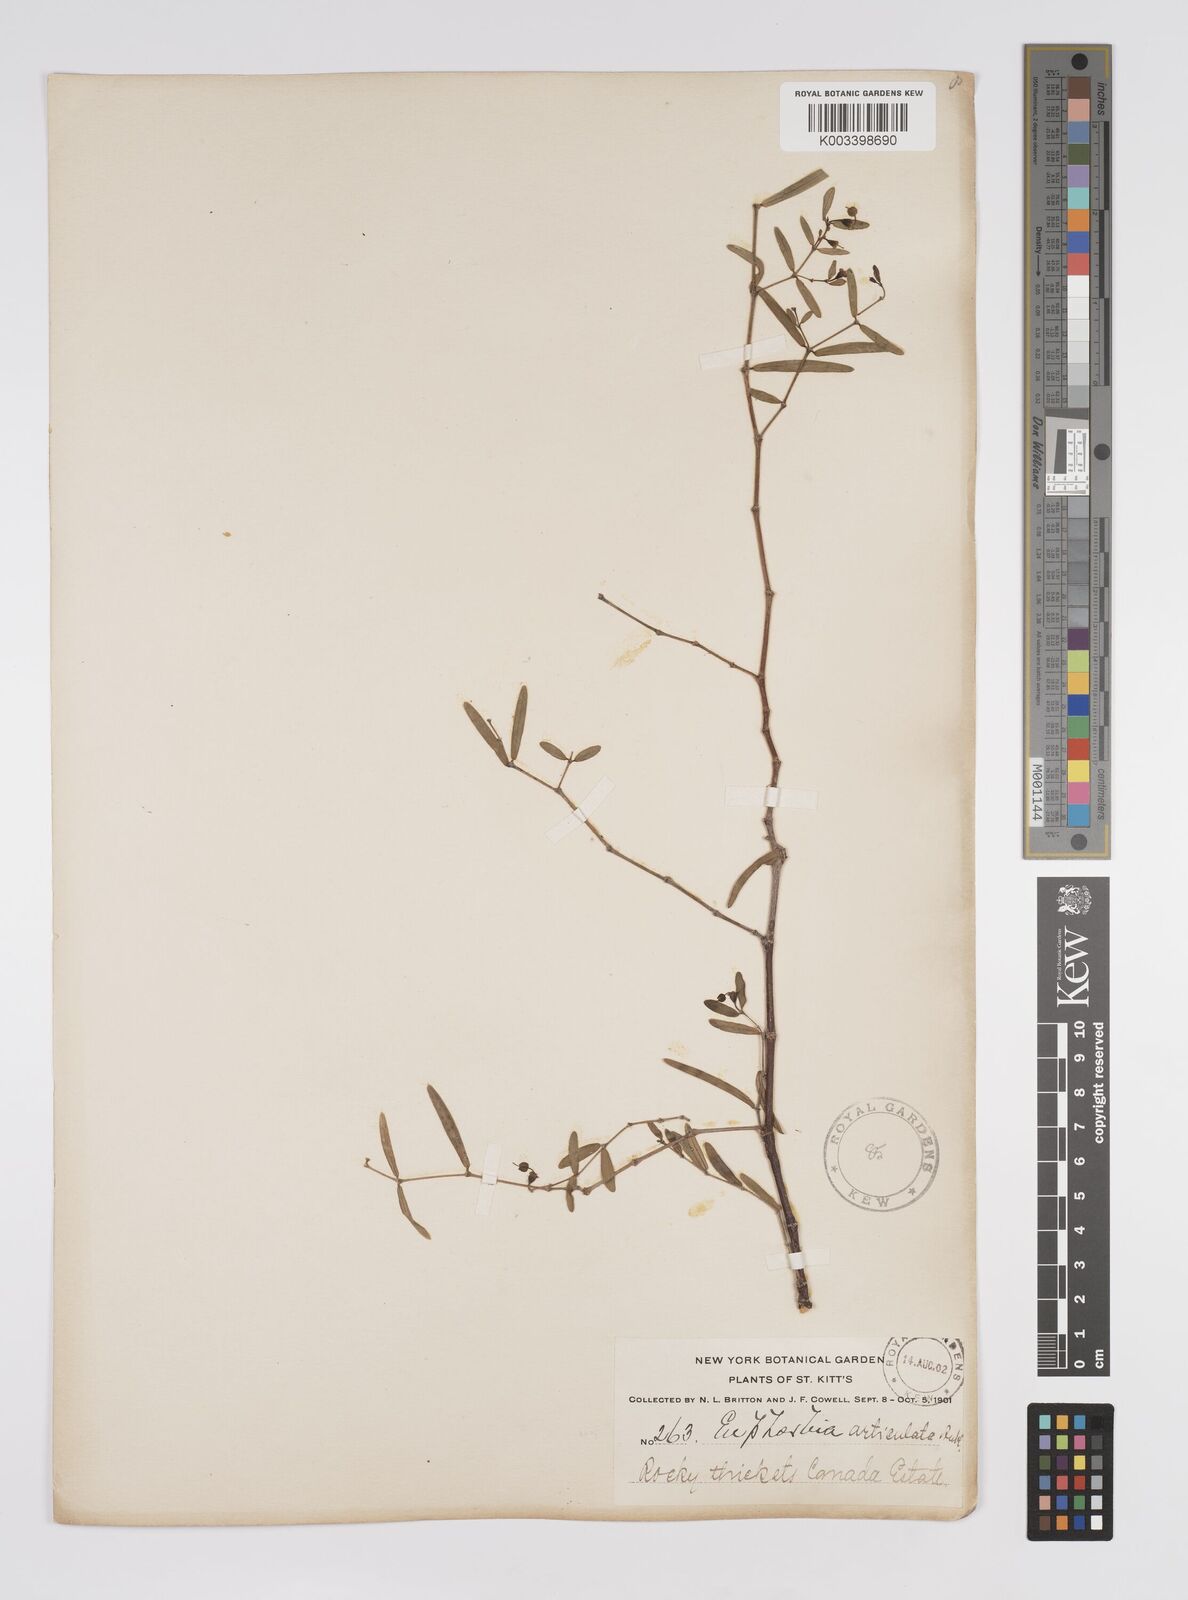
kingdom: Plantae
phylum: Tracheophyta
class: Magnoliopsida
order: Malpighiales
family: Euphorbiaceae
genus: Euphorbia
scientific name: Euphorbia articulata
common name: Jointed sandmat
